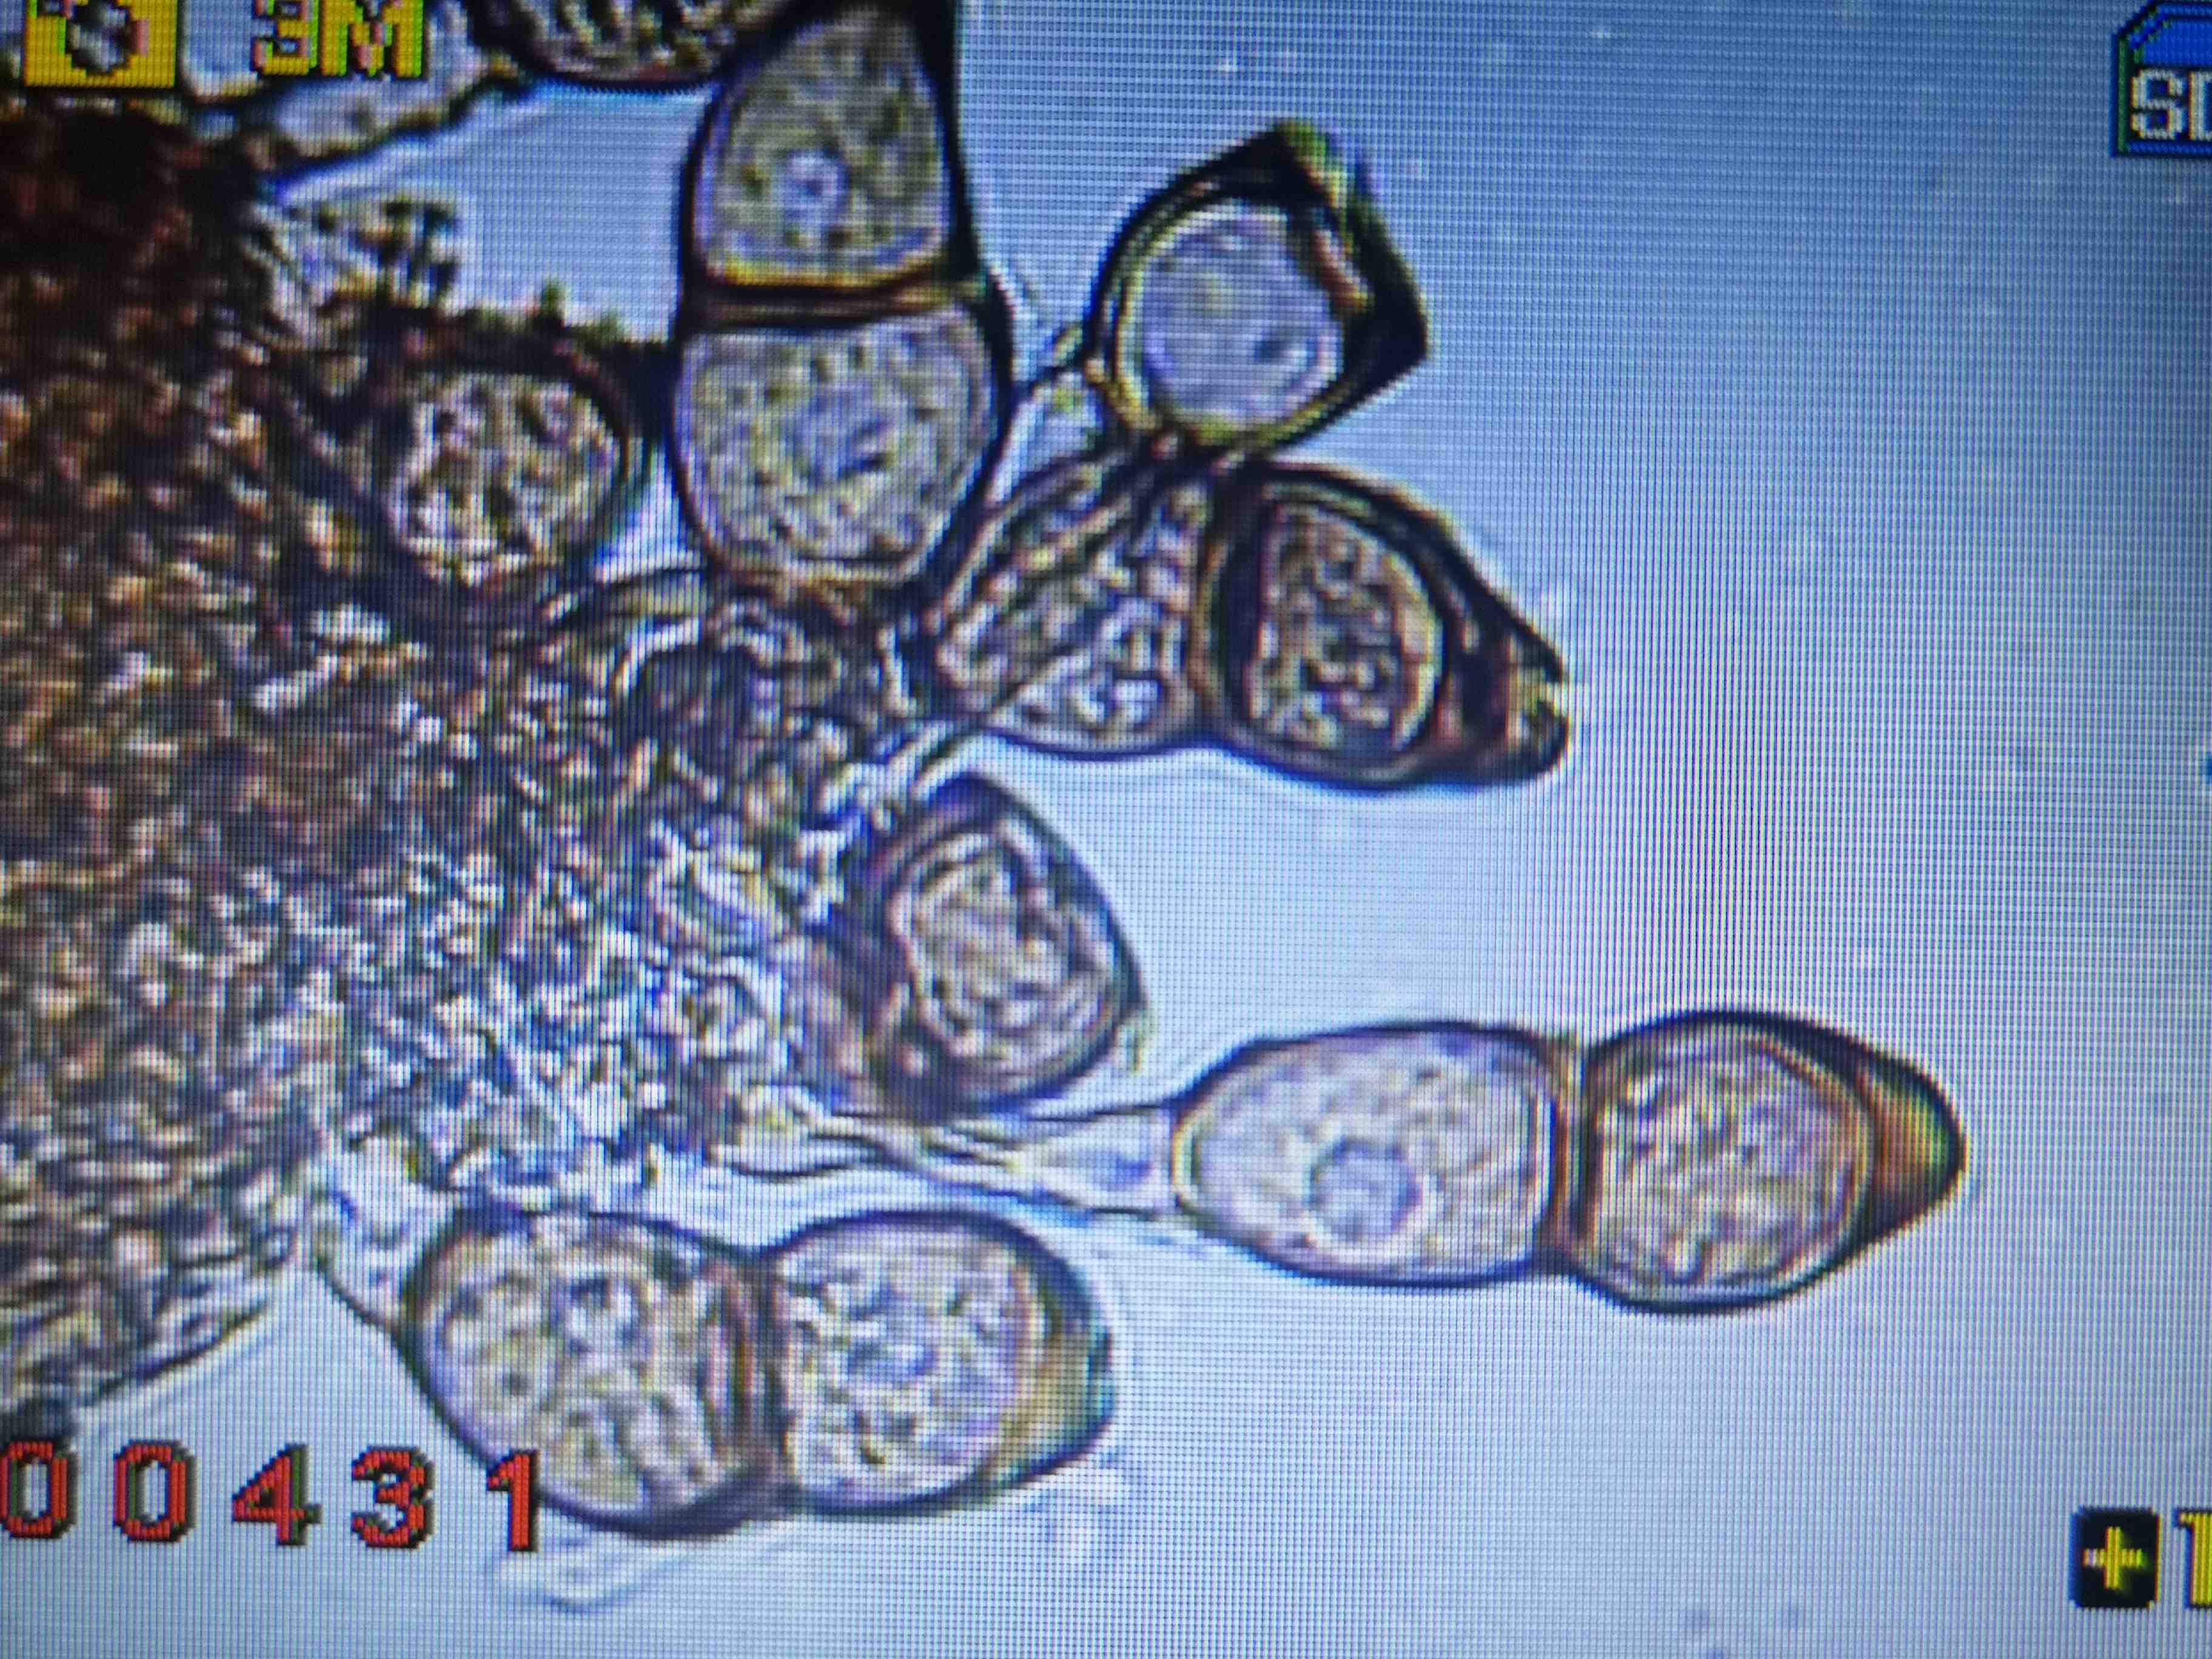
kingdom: Fungi
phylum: Basidiomycota
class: Pucciniomycetes
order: Pucciniales
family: Pucciniaceae
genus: Puccinia
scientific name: Puccinia tanaceti
